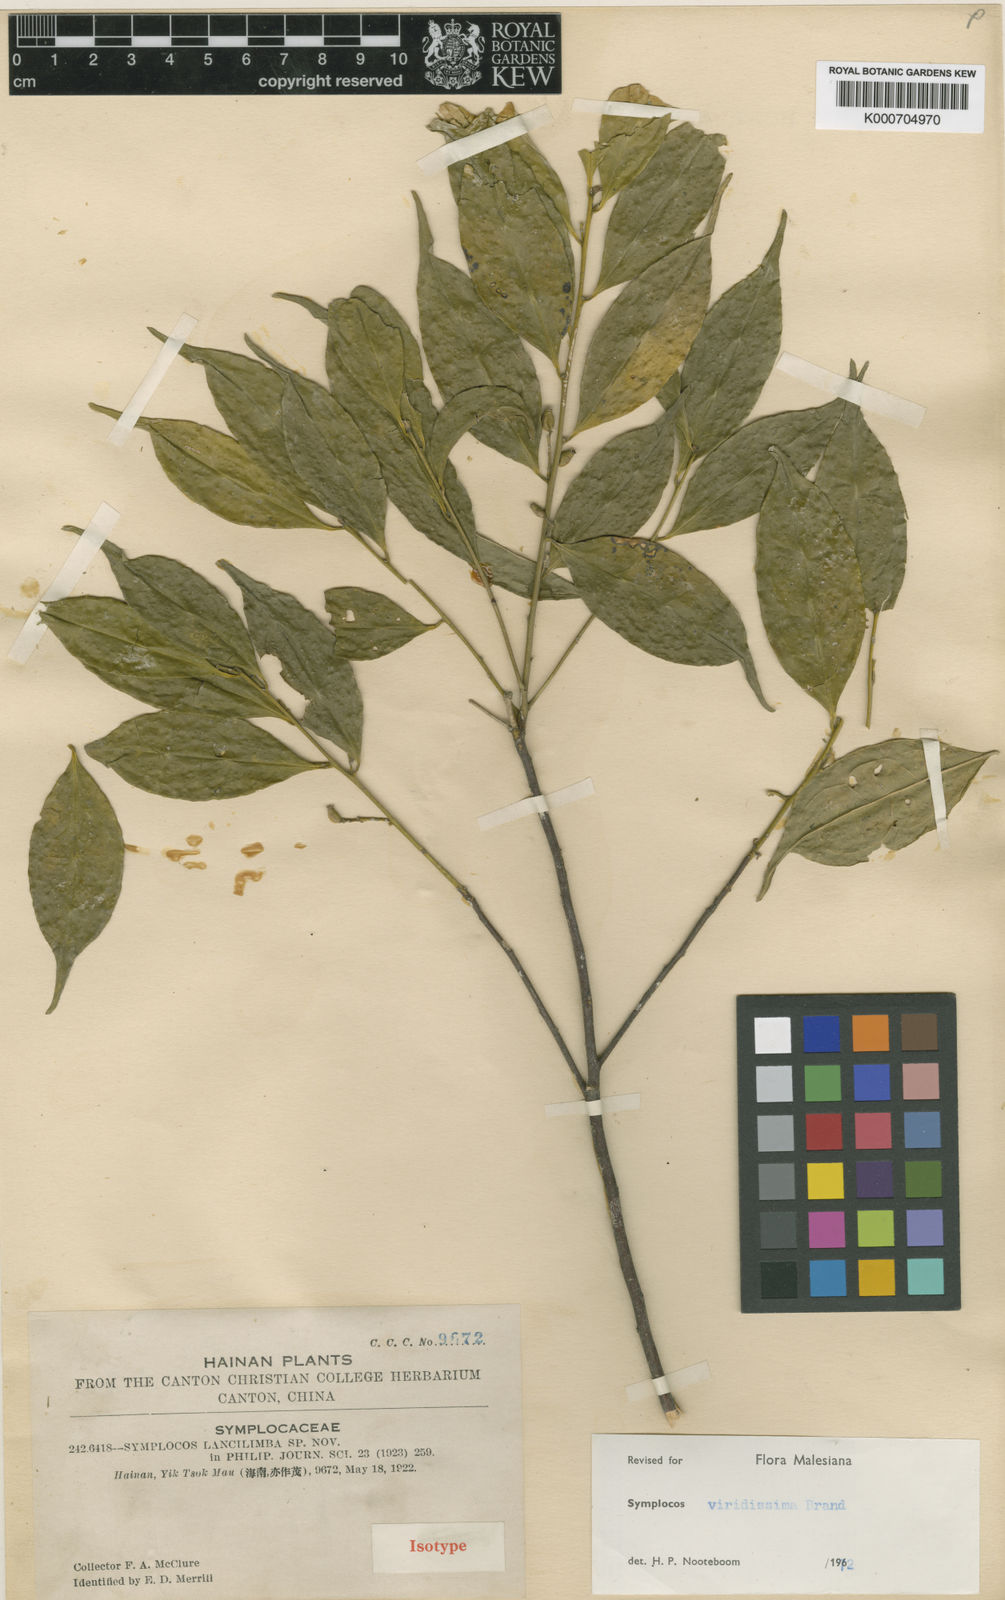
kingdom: Plantae
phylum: Tracheophyta
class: Magnoliopsida
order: Ericales
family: Symplocaceae
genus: Symplocos
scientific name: Symplocos viridissima
